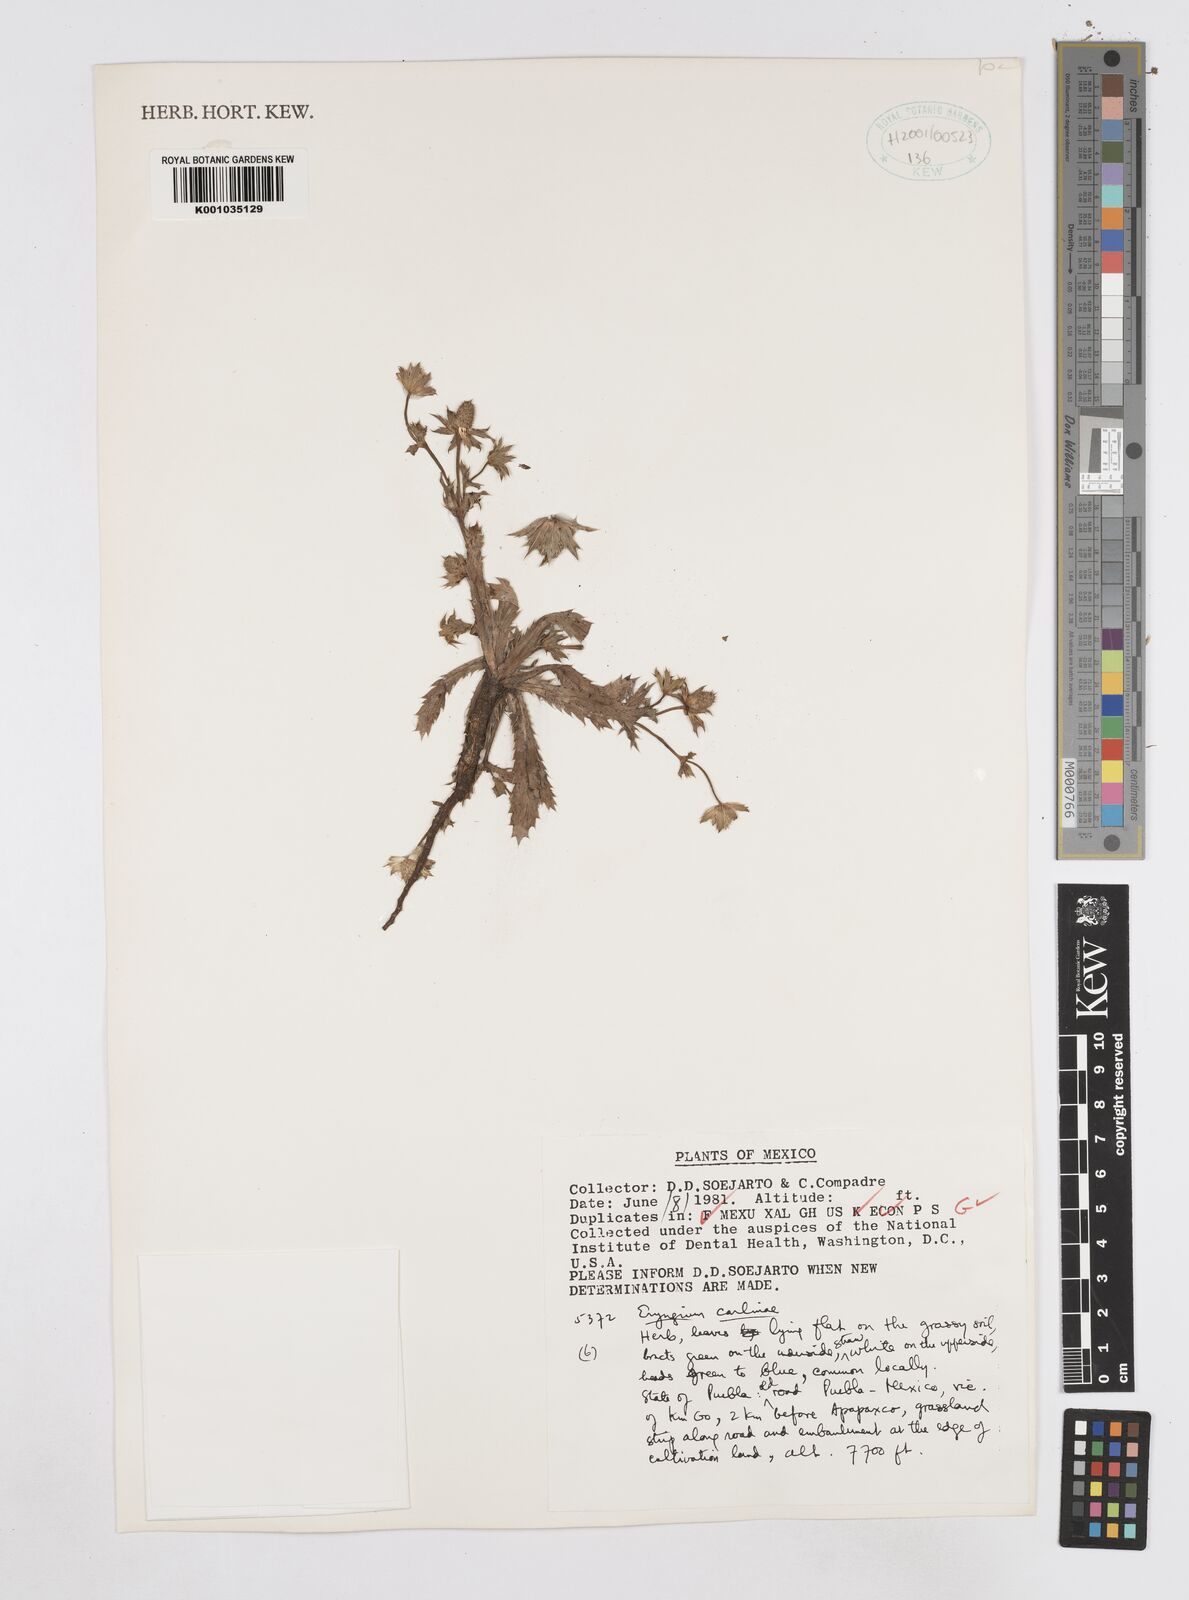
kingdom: Plantae
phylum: Tracheophyta
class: Magnoliopsida
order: Apiales
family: Apiaceae
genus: Eryngium
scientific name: Eryngium carlinae
